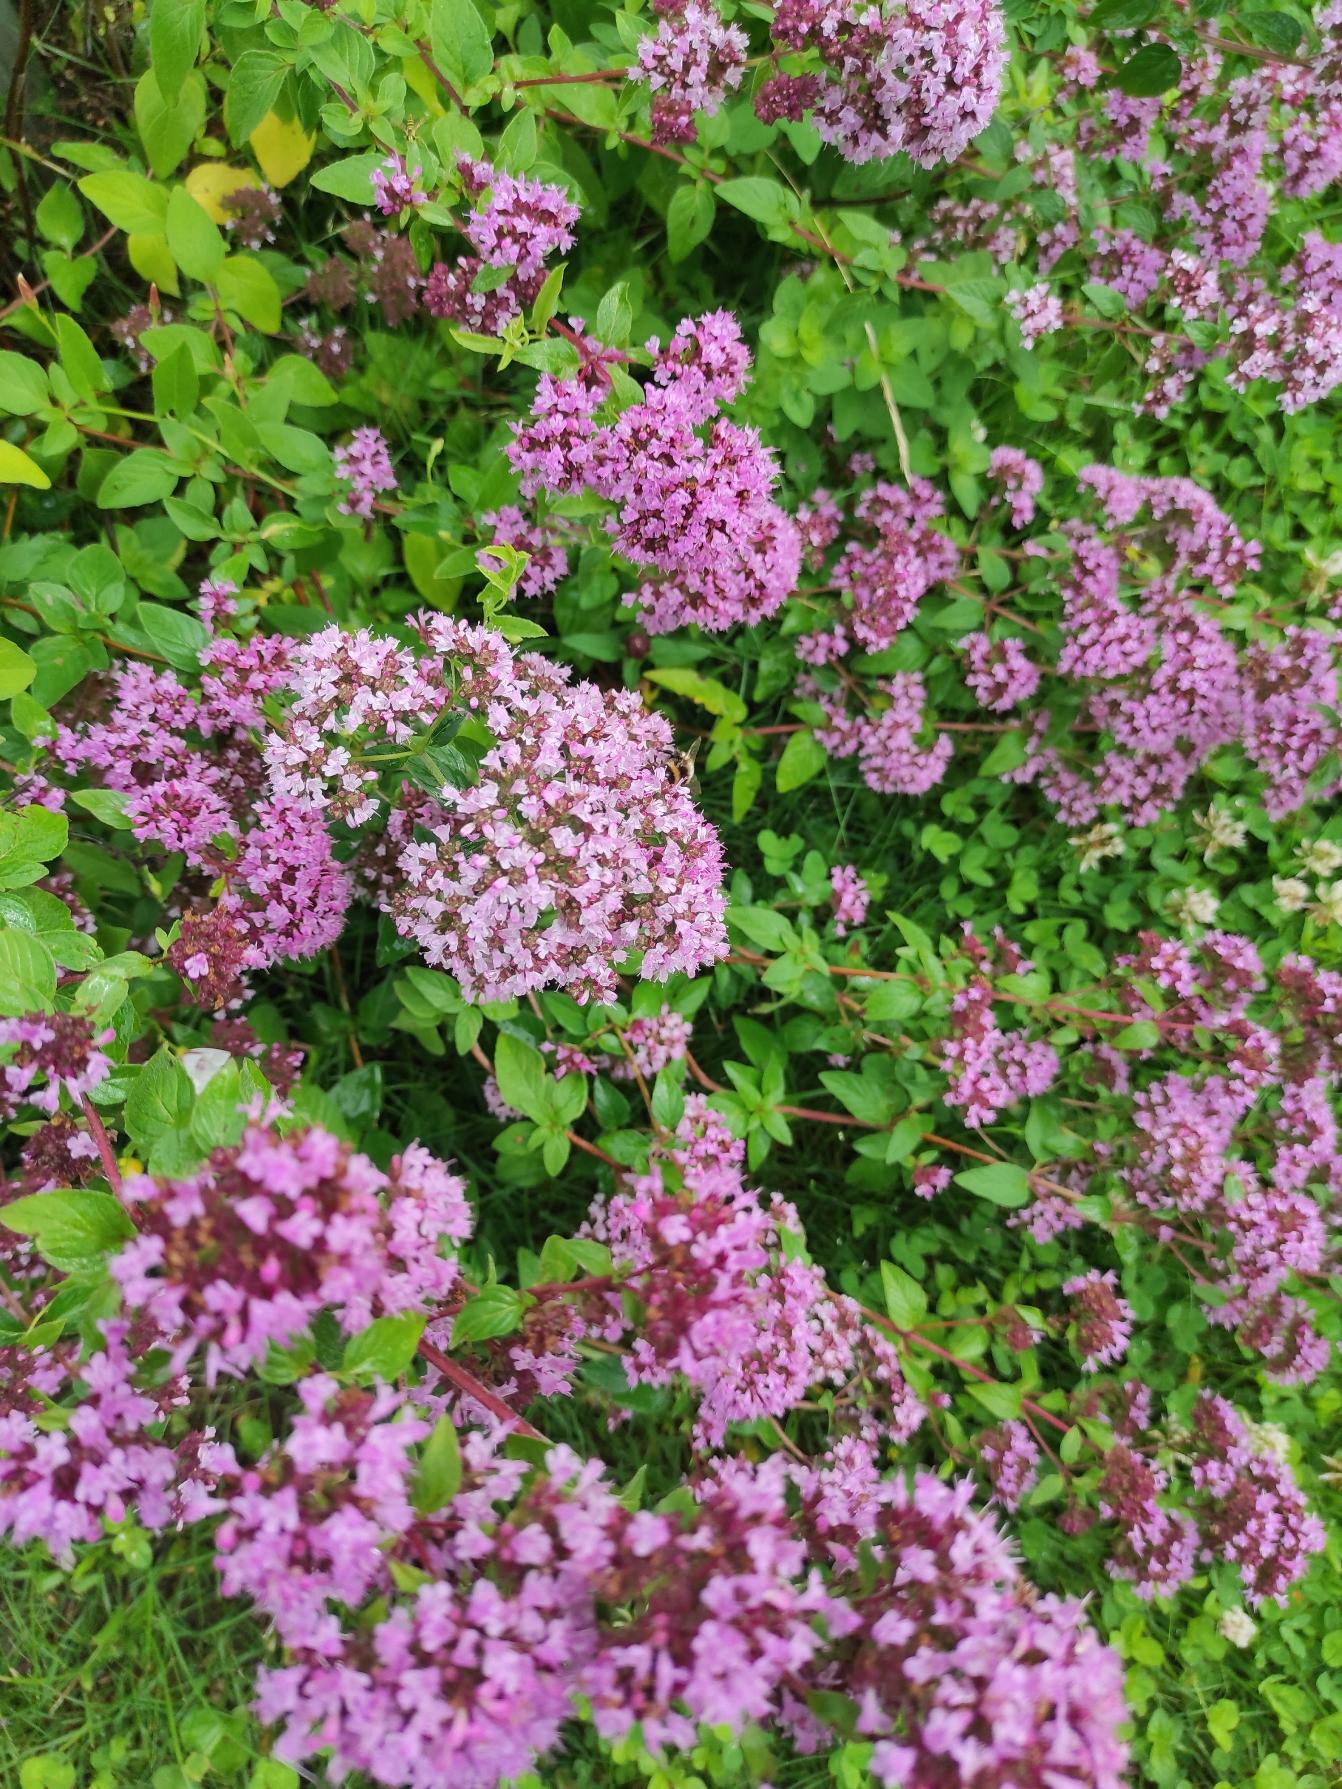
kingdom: Plantae
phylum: Tracheophyta
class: Magnoliopsida
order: Lamiales
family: Lamiaceae
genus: Origanum
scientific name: Origanum vulgare
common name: Merian
